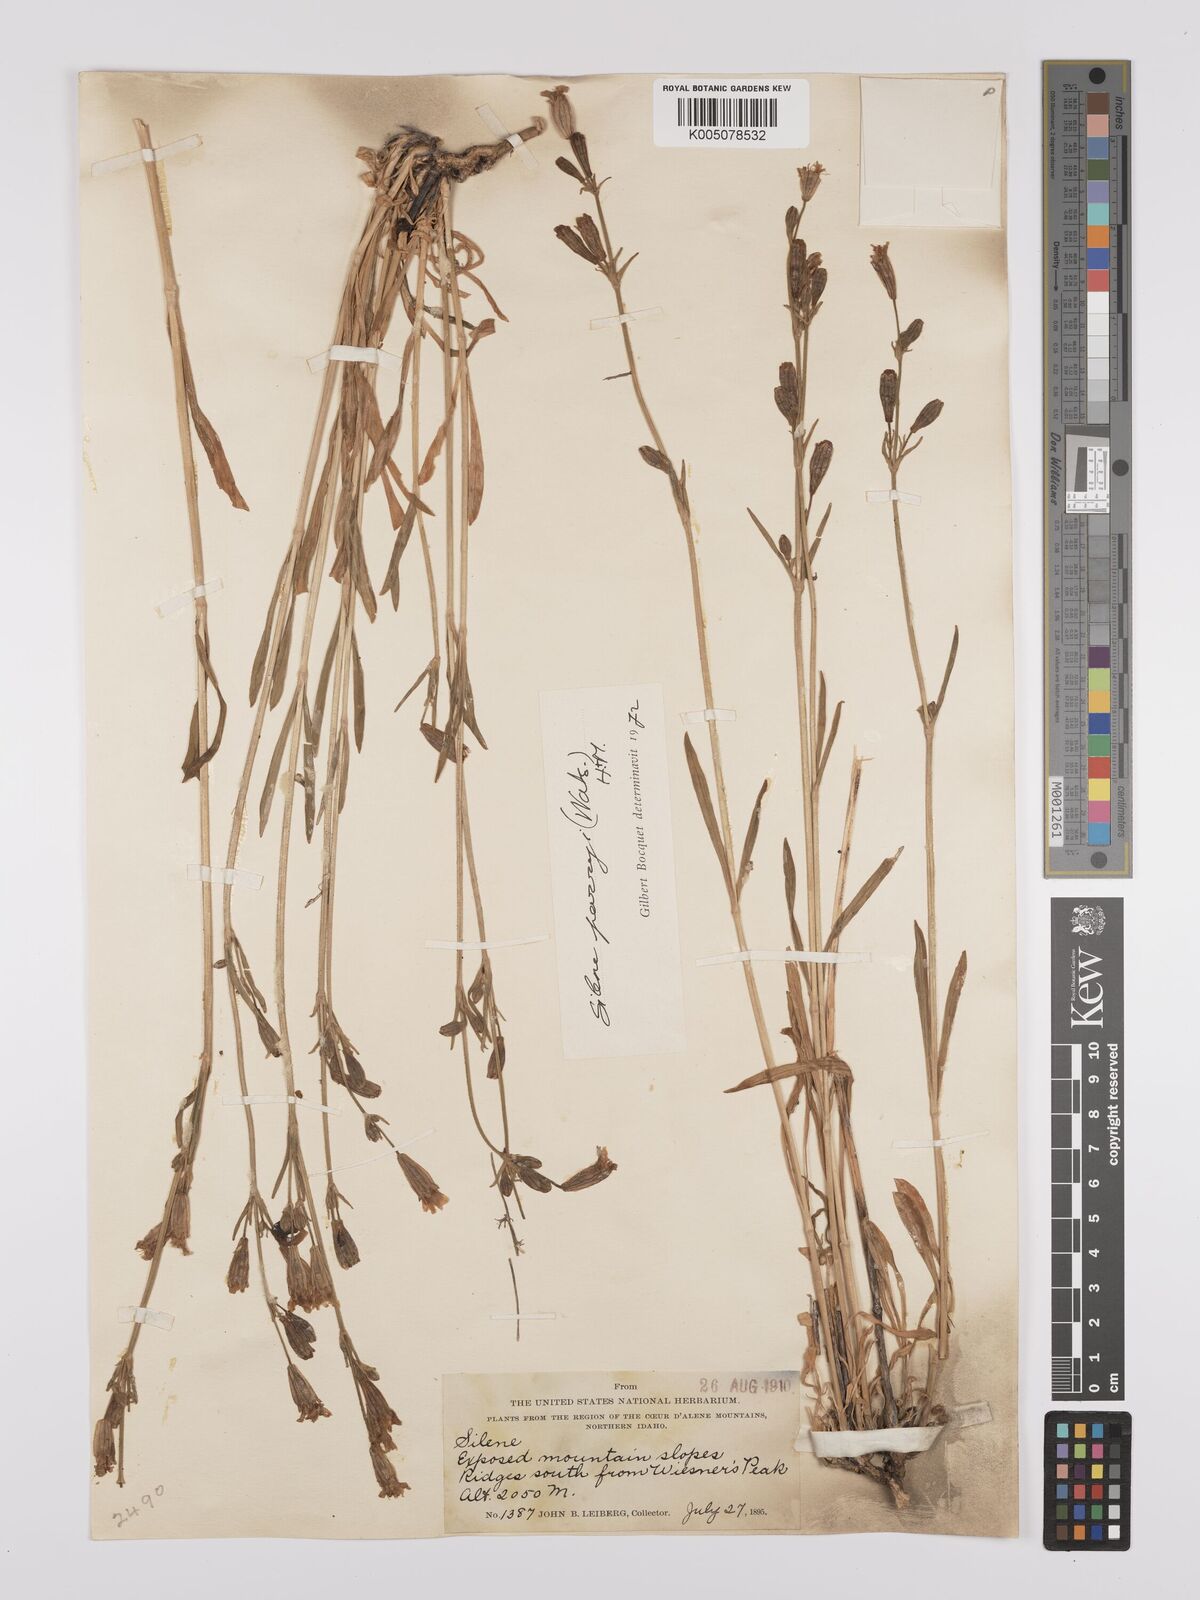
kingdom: Plantae
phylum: Tracheophyta
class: Magnoliopsida
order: Caryophyllales
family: Caryophyllaceae
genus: Silene
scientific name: Silene parryi
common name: Parry's campion
